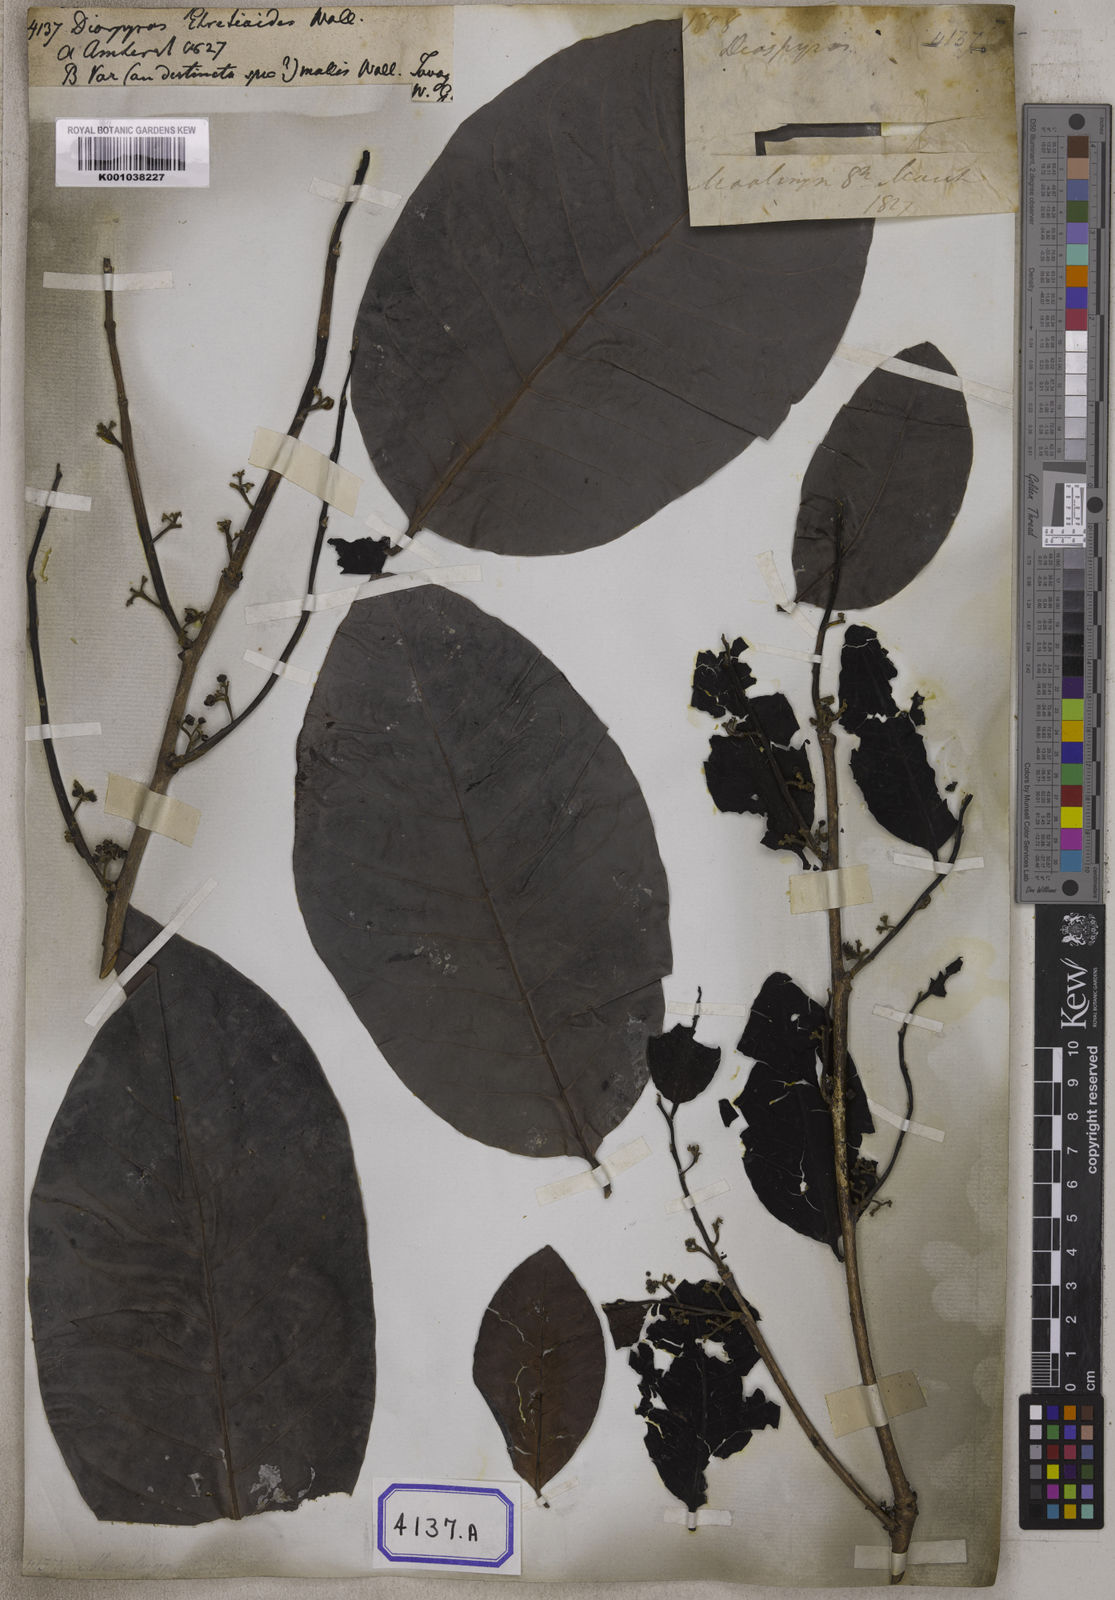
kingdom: Plantae
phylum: Tracheophyta
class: Magnoliopsida
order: Ericales
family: Ebenaceae
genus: Diospyros
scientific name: Diospyros
